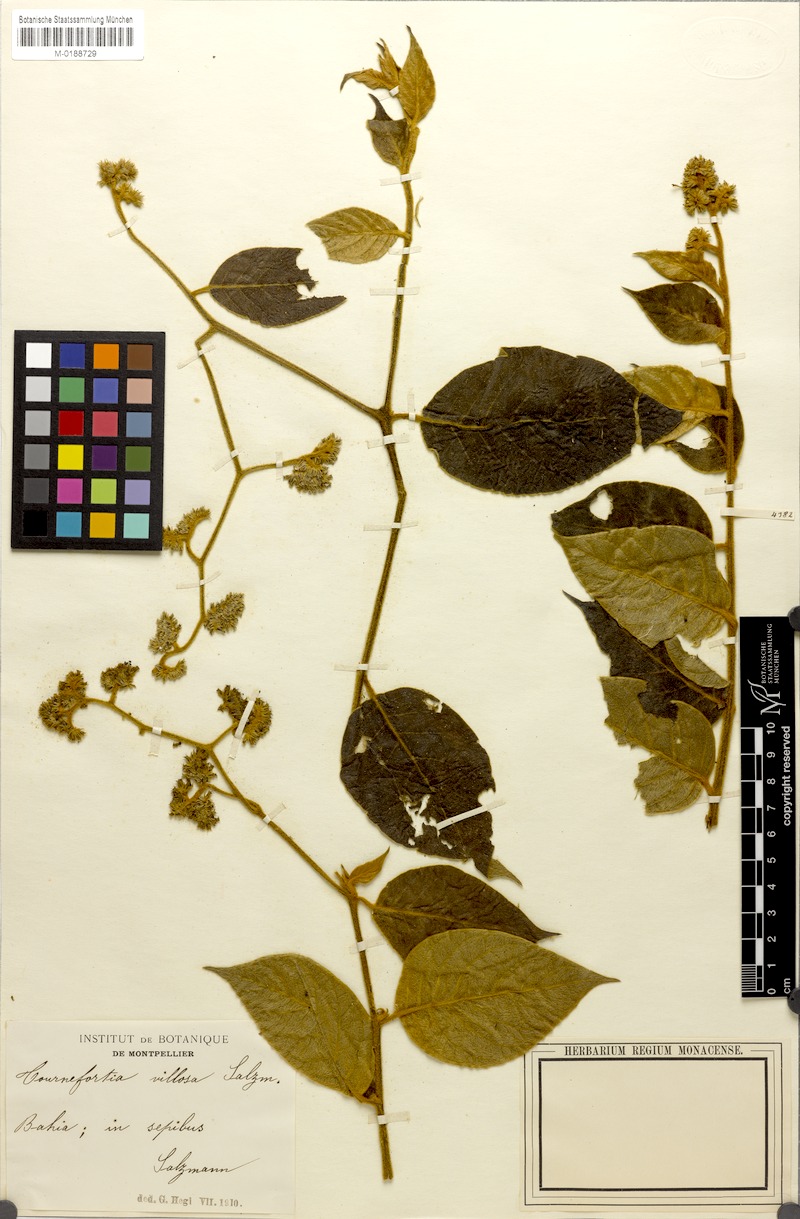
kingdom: Plantae
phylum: Tracheophyta
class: Magnoliopsida
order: Boraginales
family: Heliotropiaceae
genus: Tournefortia
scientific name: Tournefortia villosa
